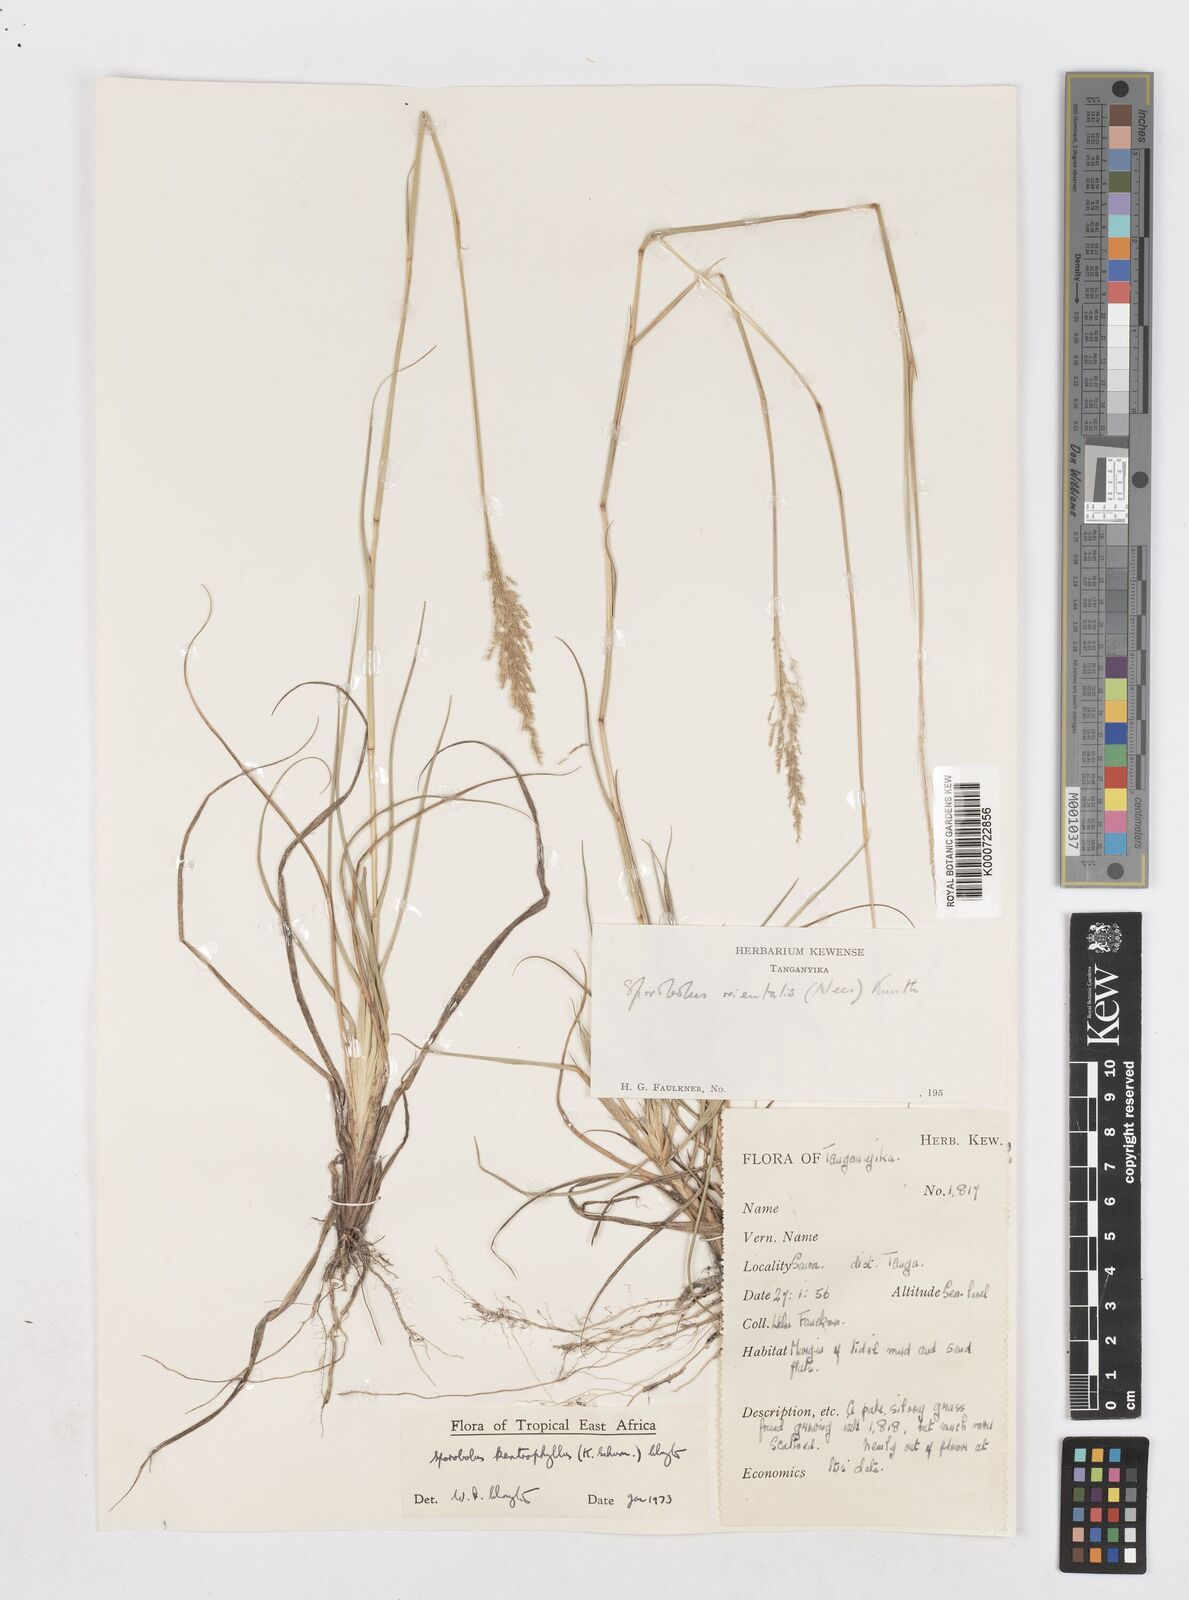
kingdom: Plantae
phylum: Tracheophyta
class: Liliopsida
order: Poales
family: Poaceae
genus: Sporobolus
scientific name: Sporobolus ioclados
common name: Pan dropseed
